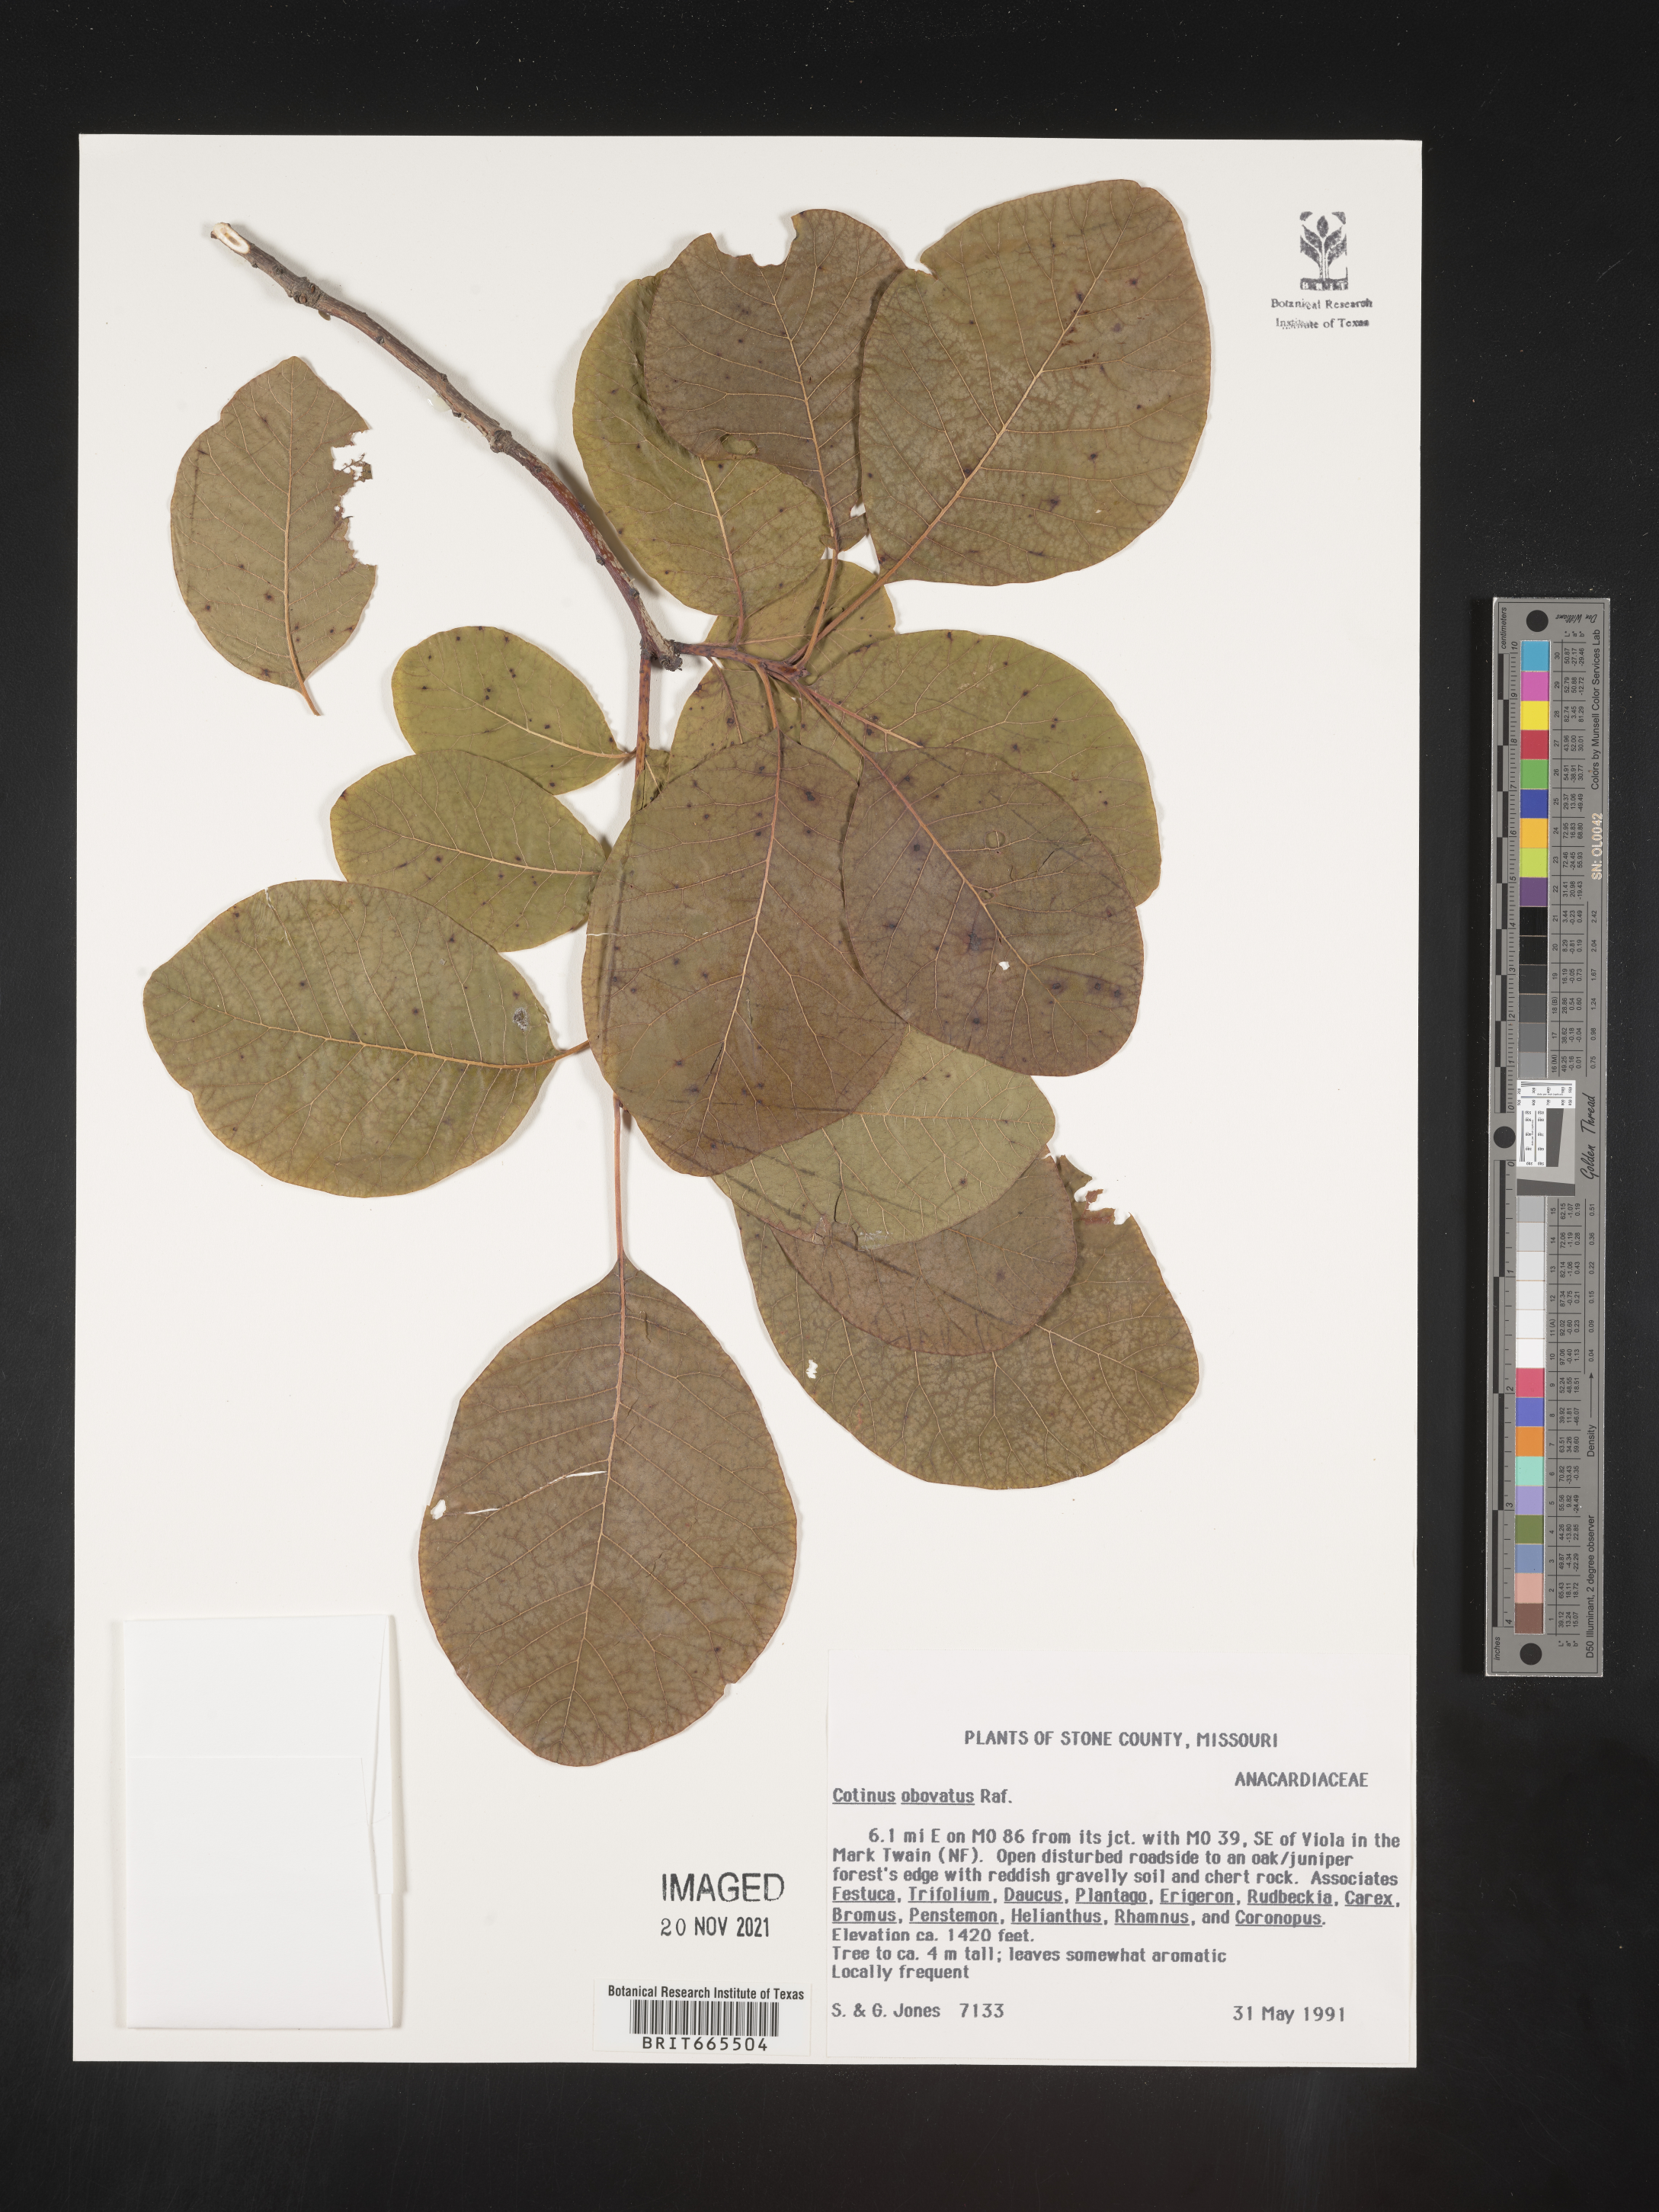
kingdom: Plantae
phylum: Tracheophyta
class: Magnoliopsida
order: Sapindales
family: Anacardiaceae
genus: Cotinus
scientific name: Cotinus obovatus
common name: Chittamwood
